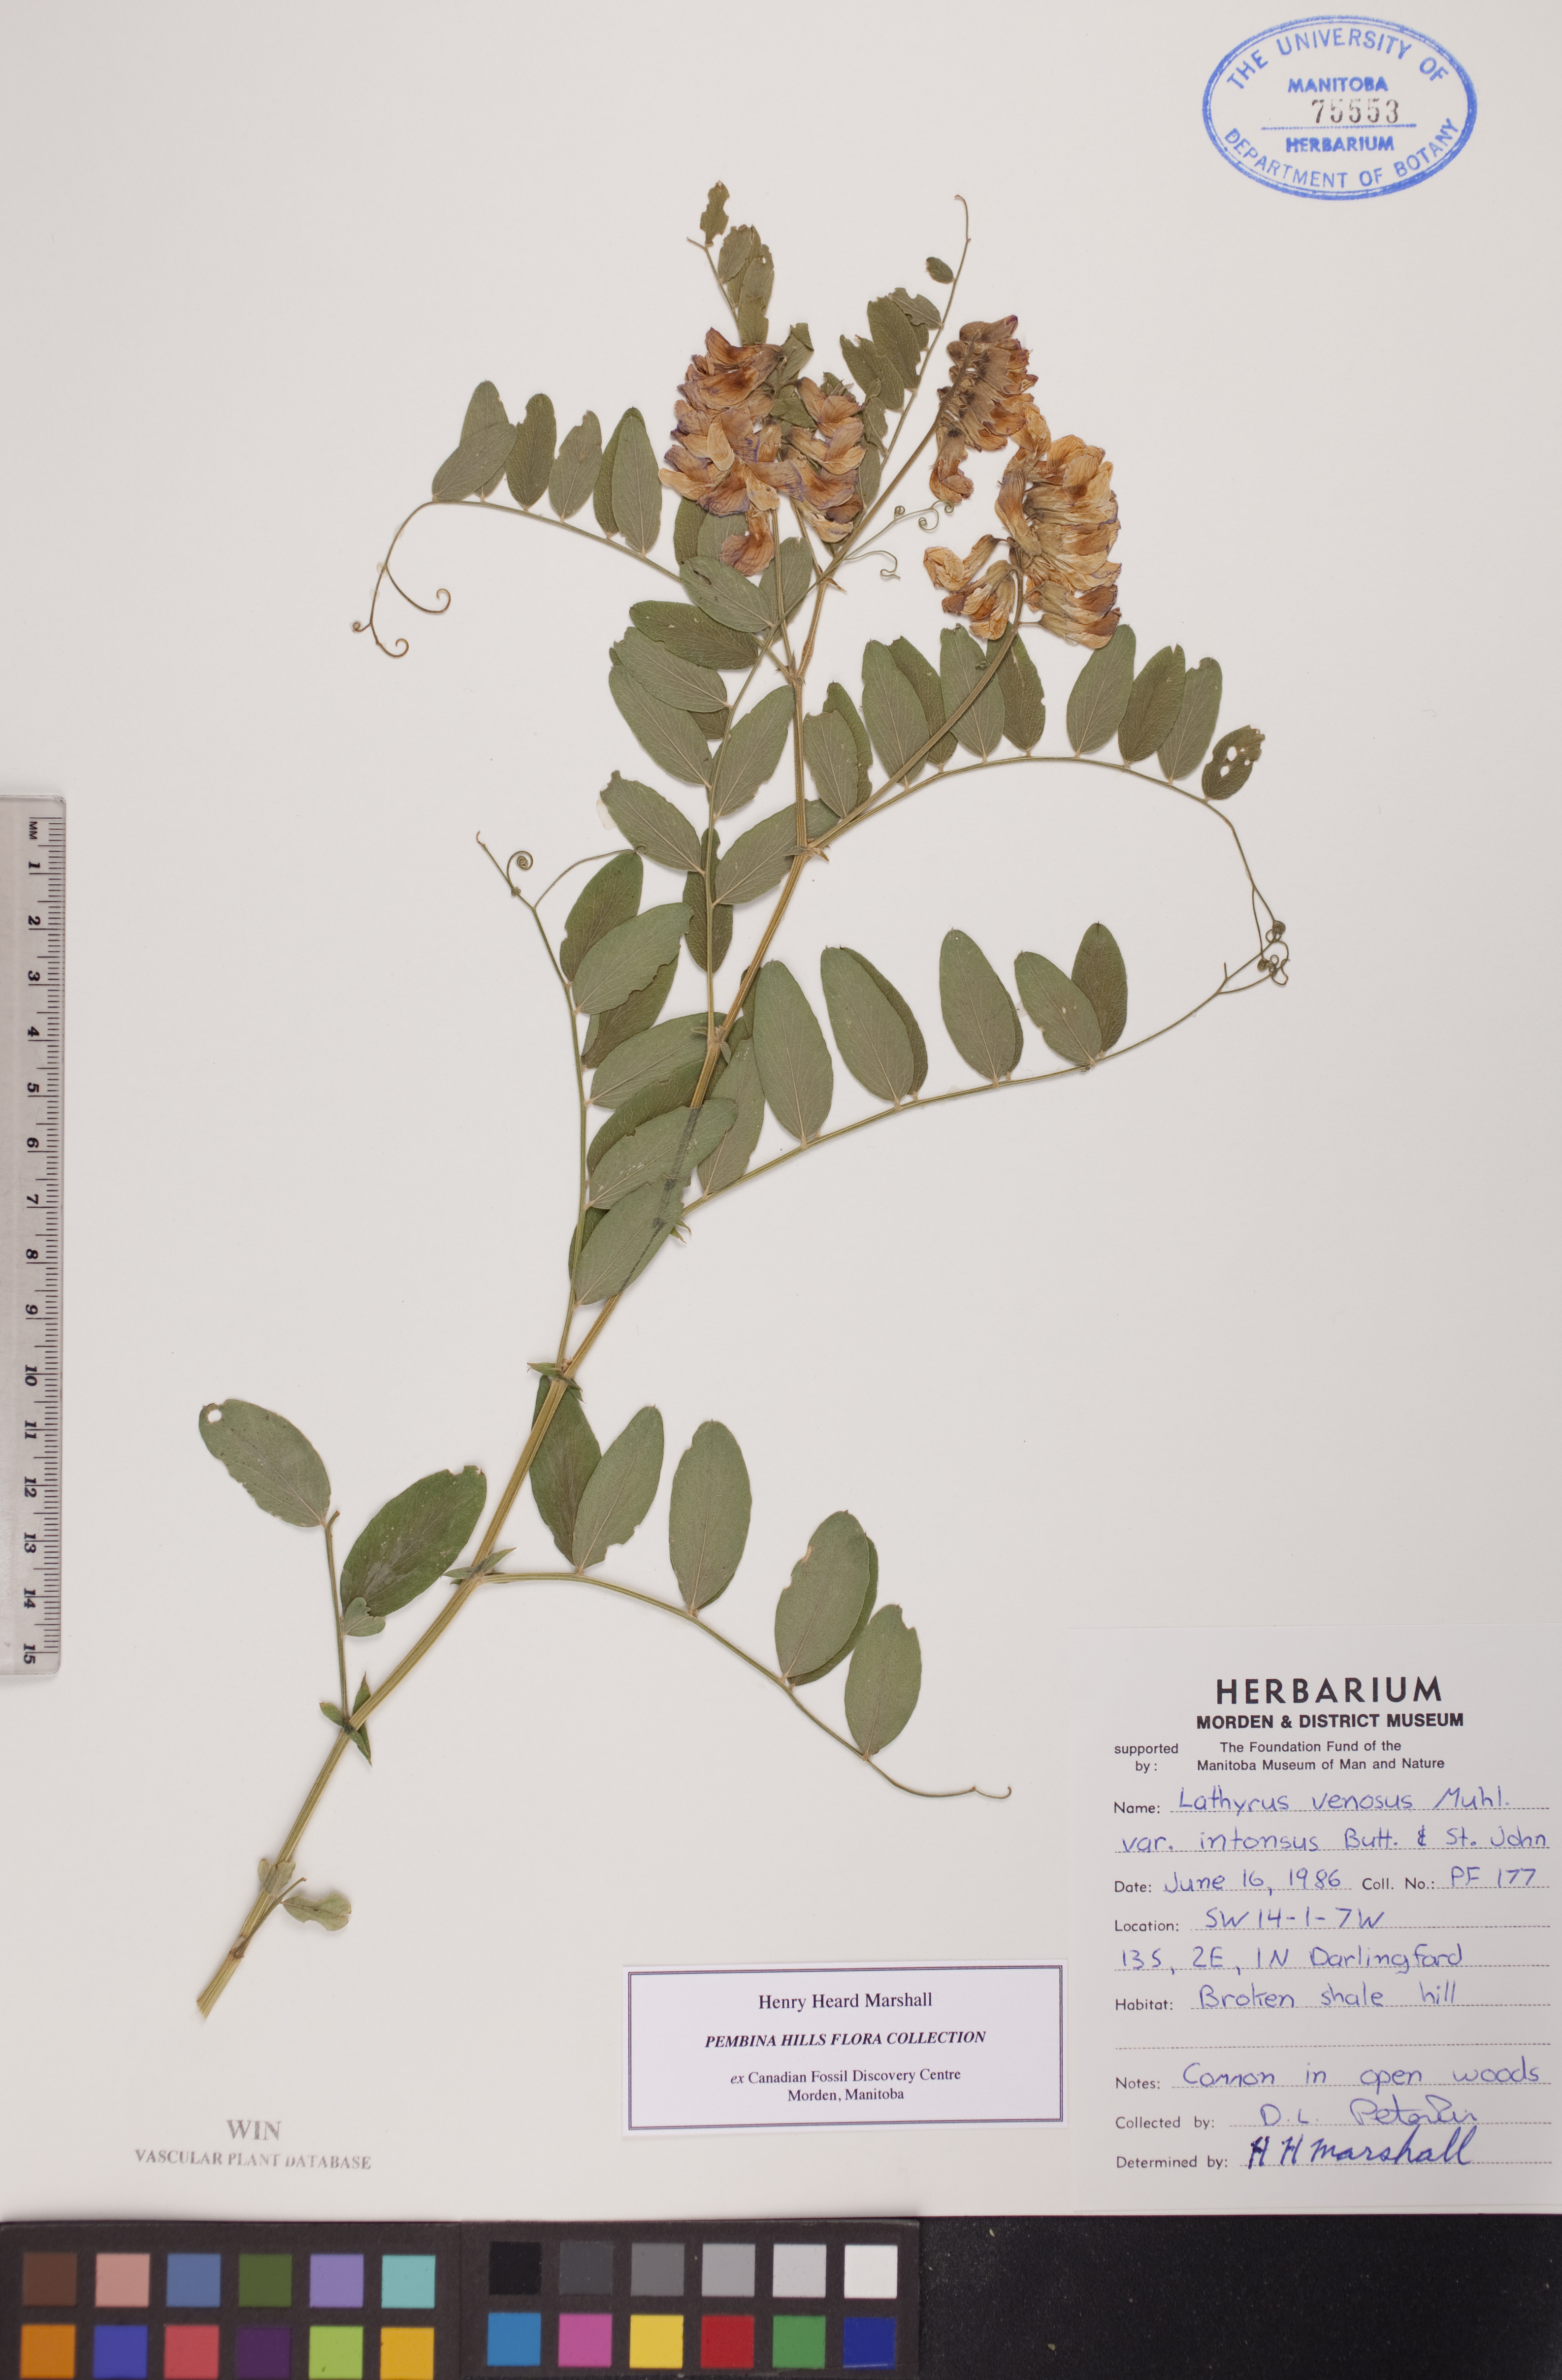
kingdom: Plantae
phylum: Tracheophyta
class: Magnoliopsida
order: Fabales
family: Fabaceae
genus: Lathyrus
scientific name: Lathyrus venosus
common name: Forest-pea
